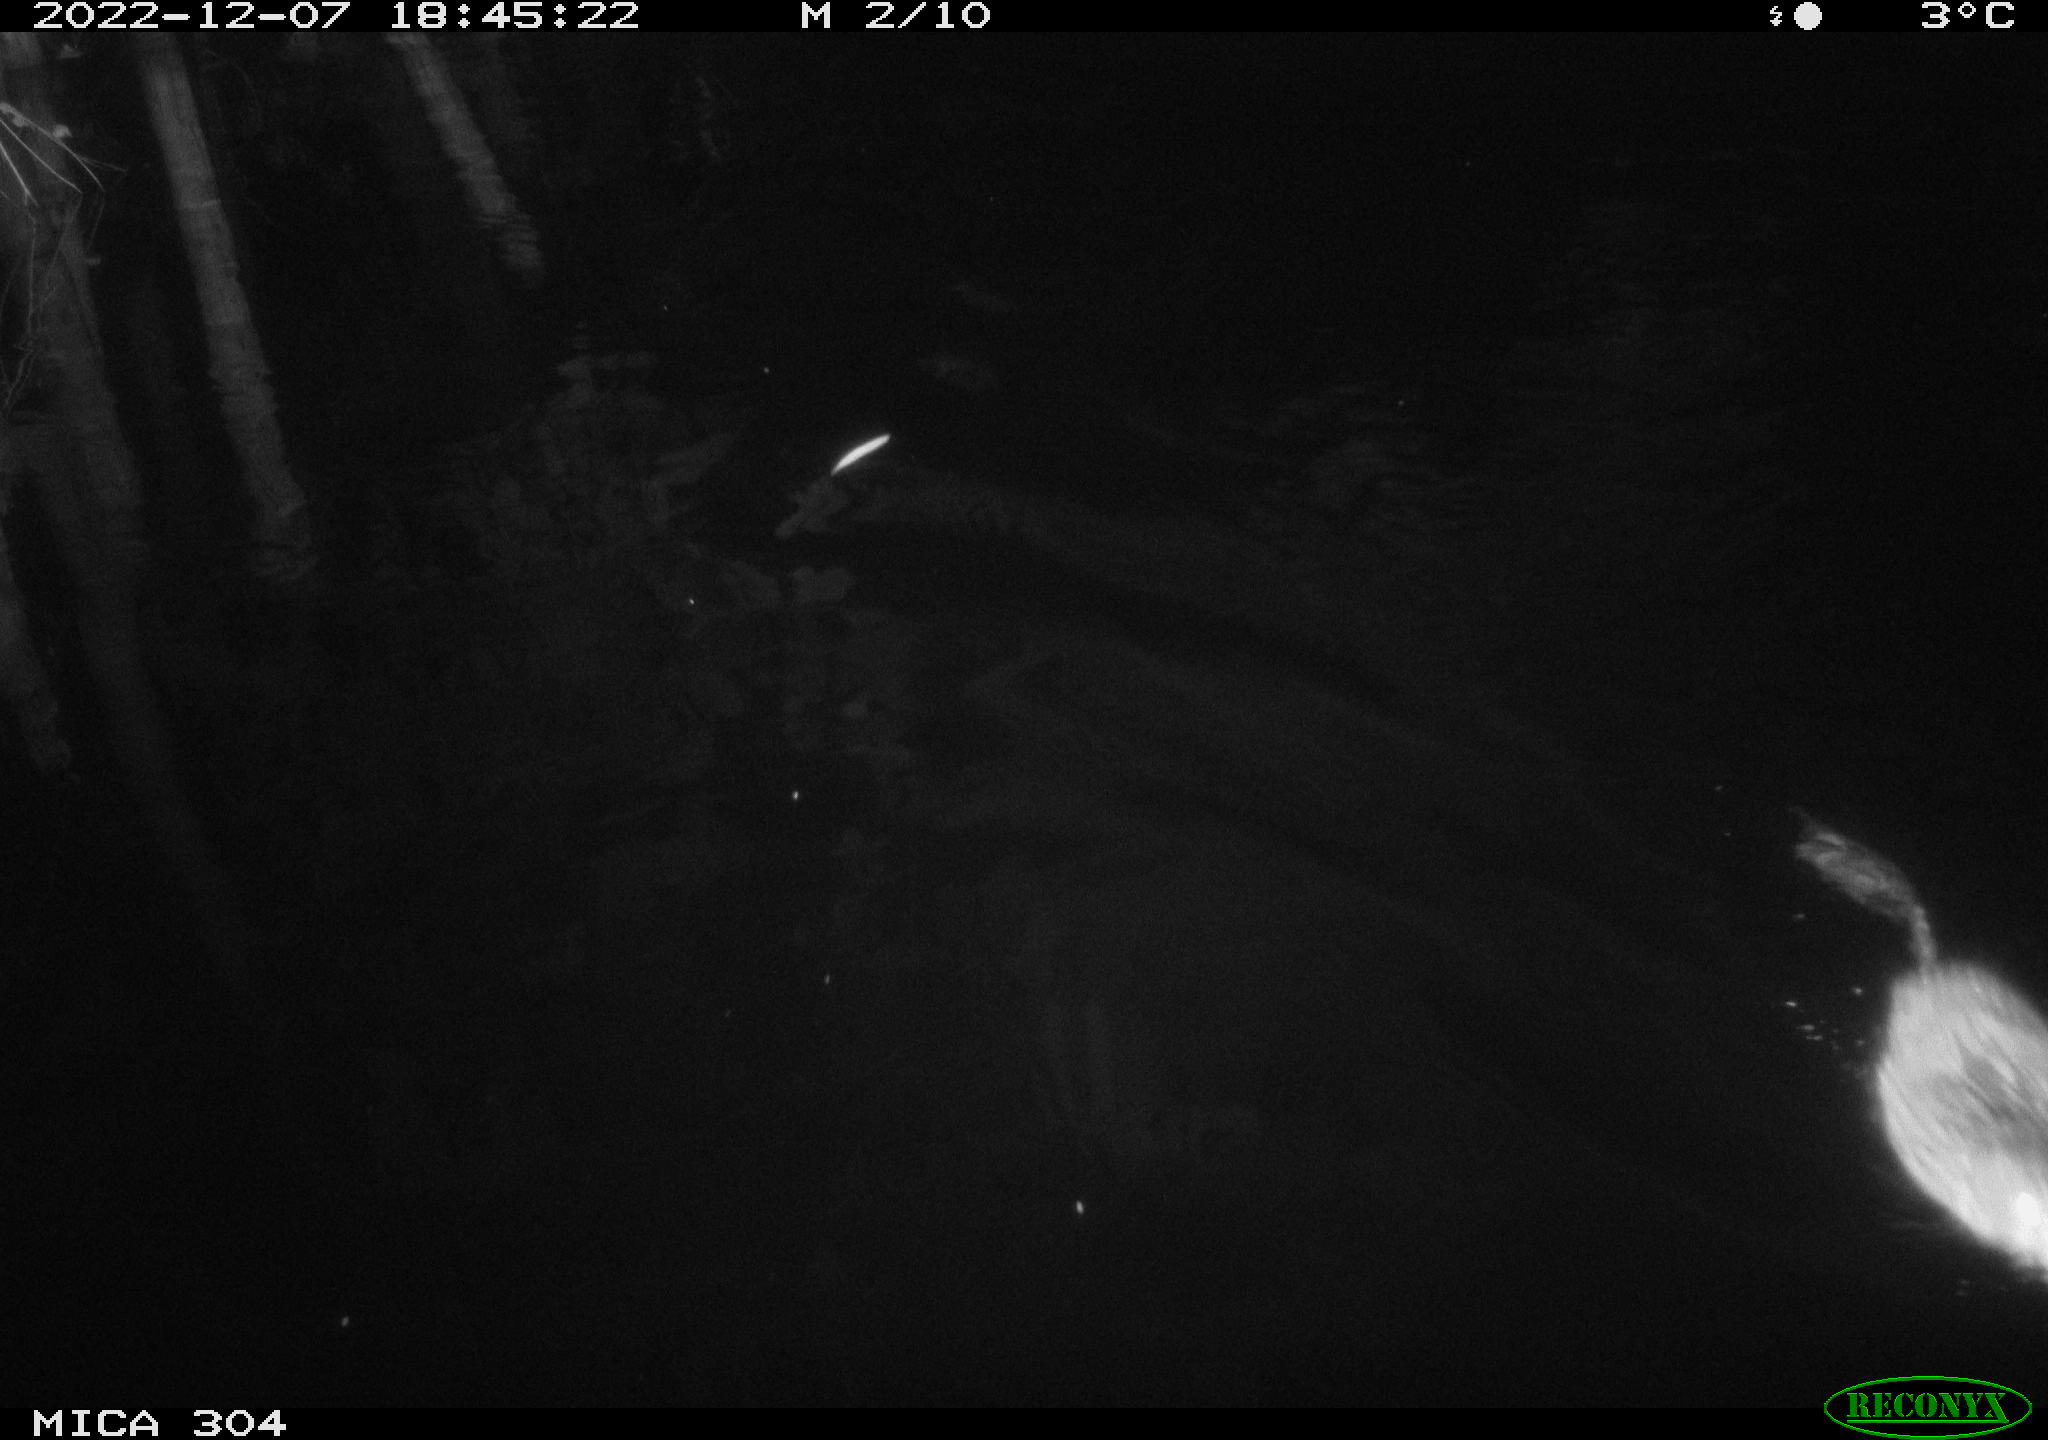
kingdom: Animalia
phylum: Chordata
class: Mammalia
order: Rodentia
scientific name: Rodentia
